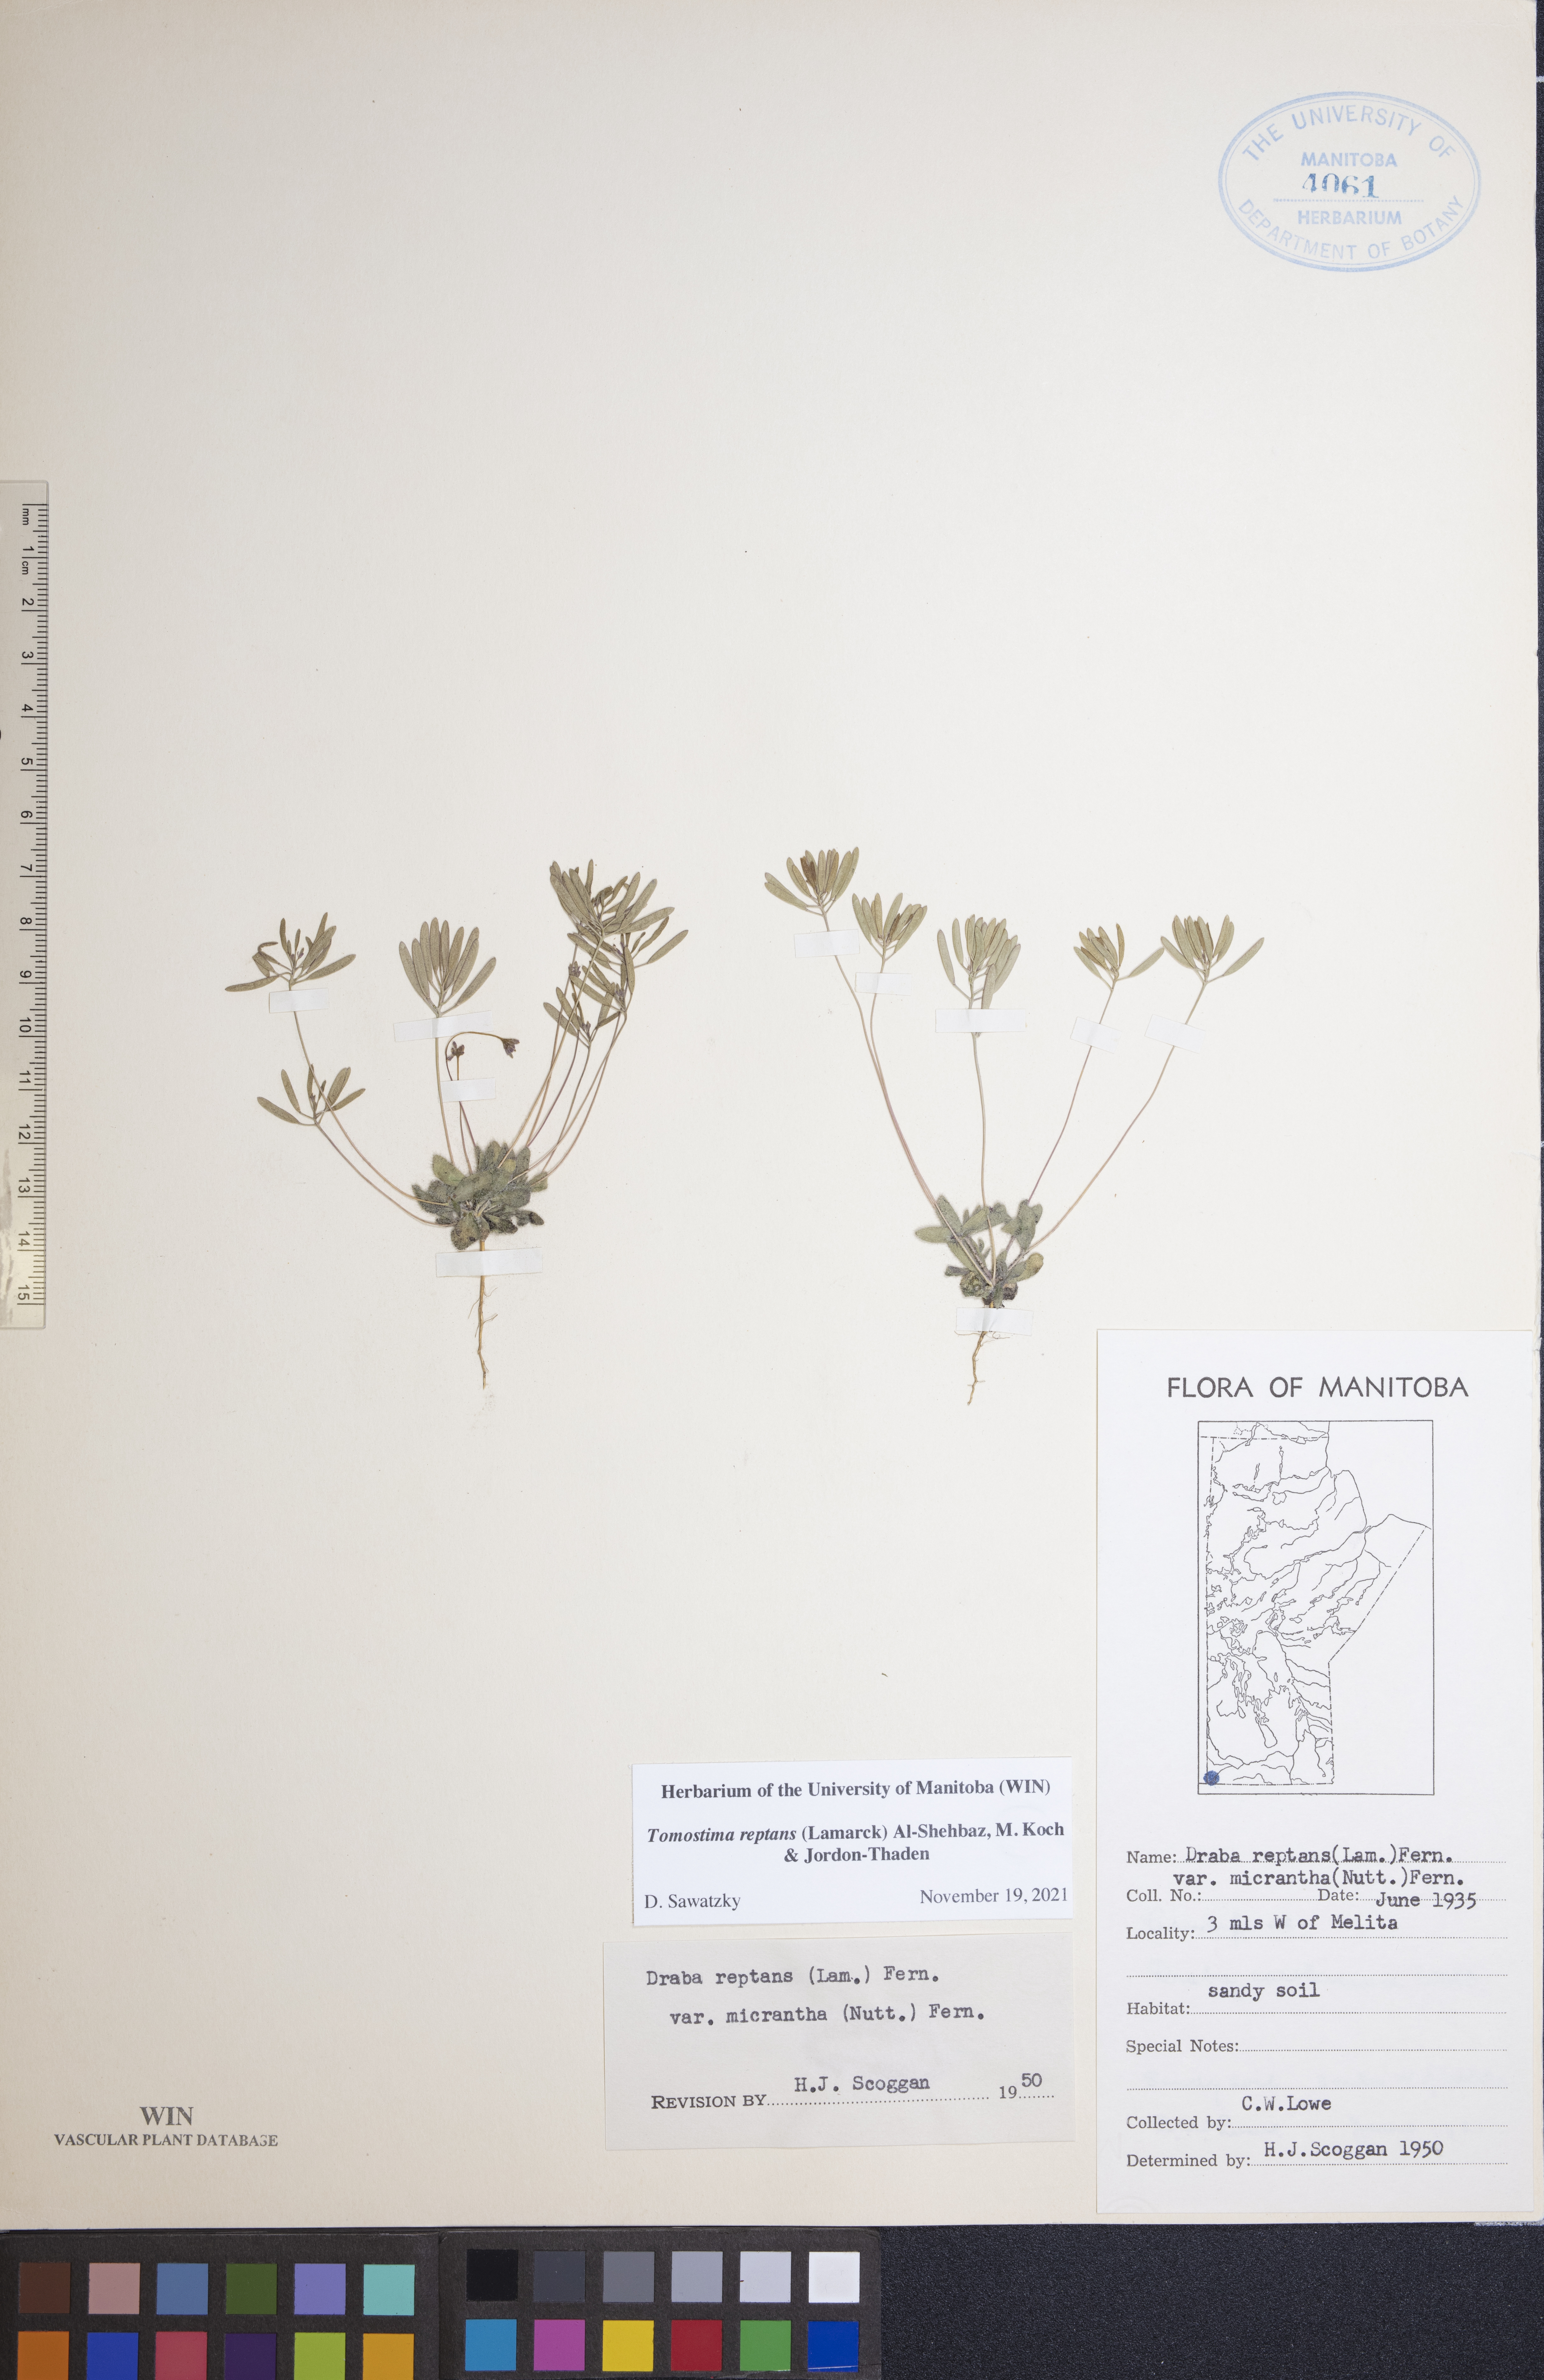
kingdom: Plantae
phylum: Tracheophyta
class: Magnoliopsida
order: Brassicales
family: Brassicaceae
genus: Tomostima
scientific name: Tomostima reptans
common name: Carolina draba
